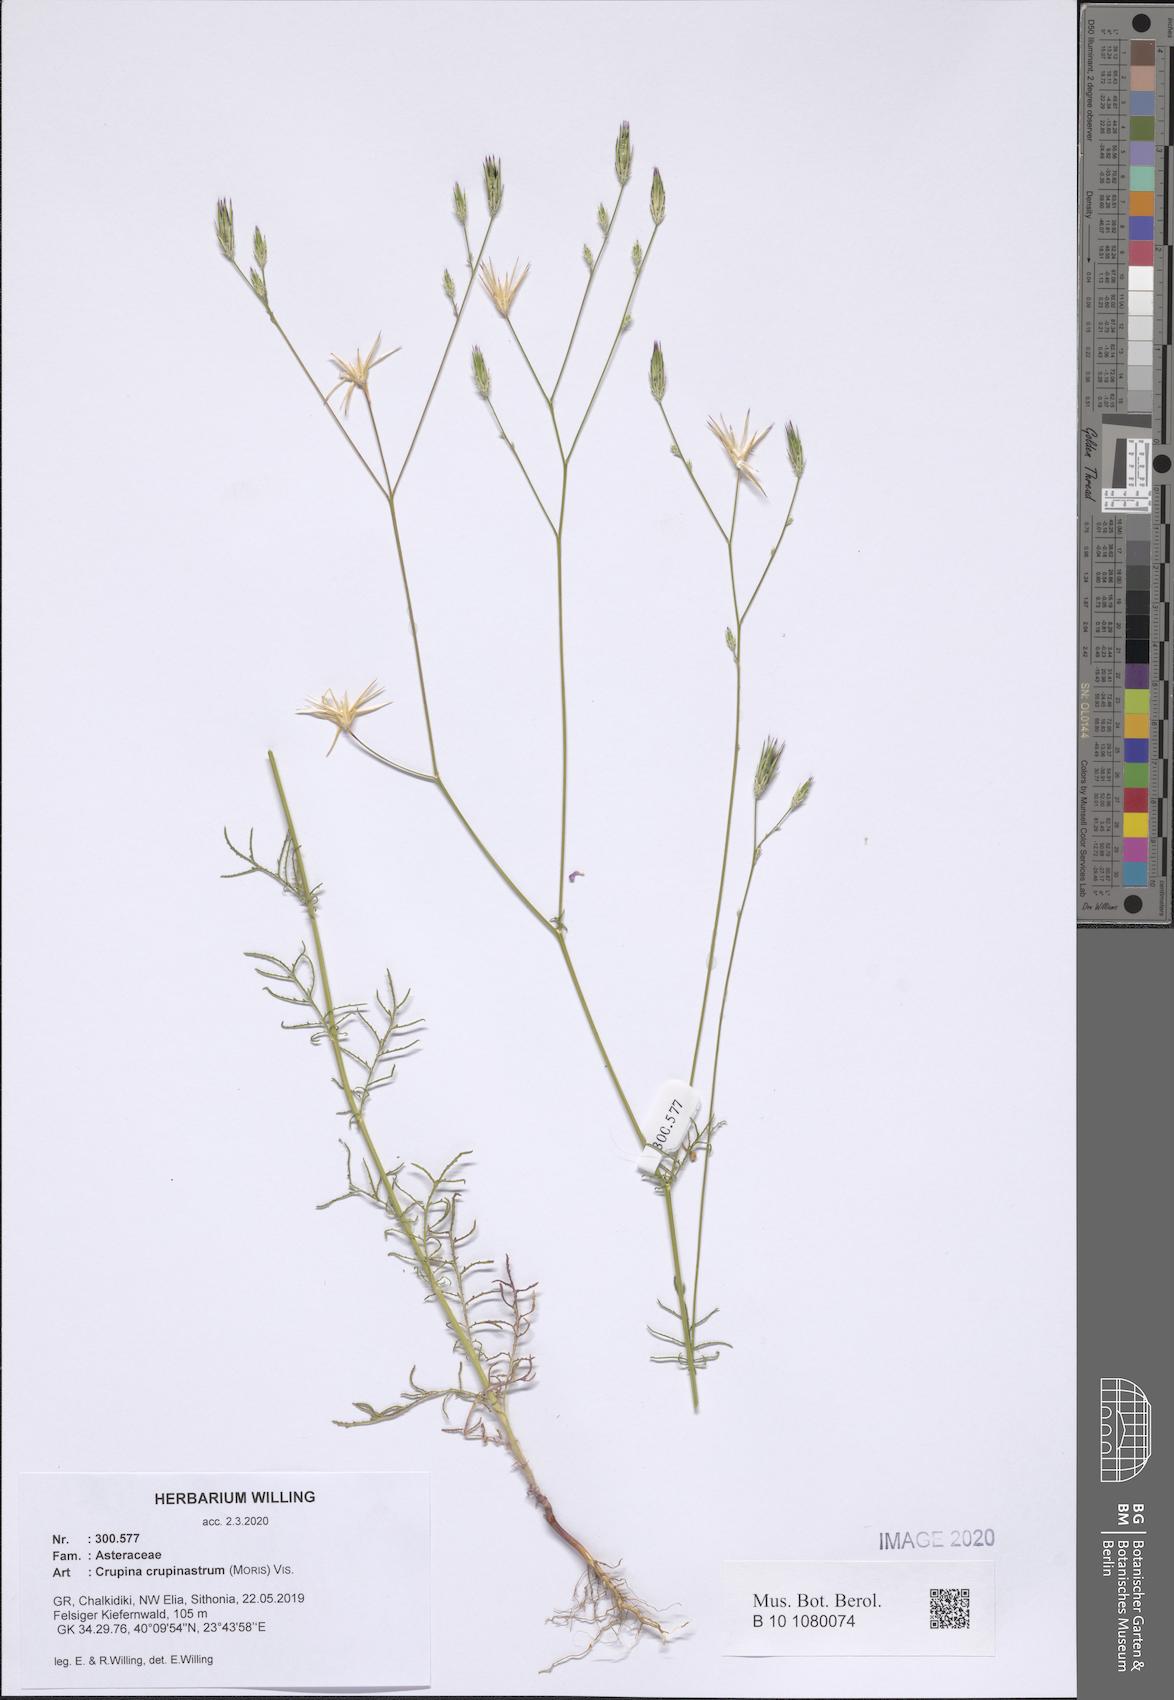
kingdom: Plantae
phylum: Tracheophyta
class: Magnoliopsida
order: Asterales
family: Asteraceae
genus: Crupina
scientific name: Crupina crupinastrum
